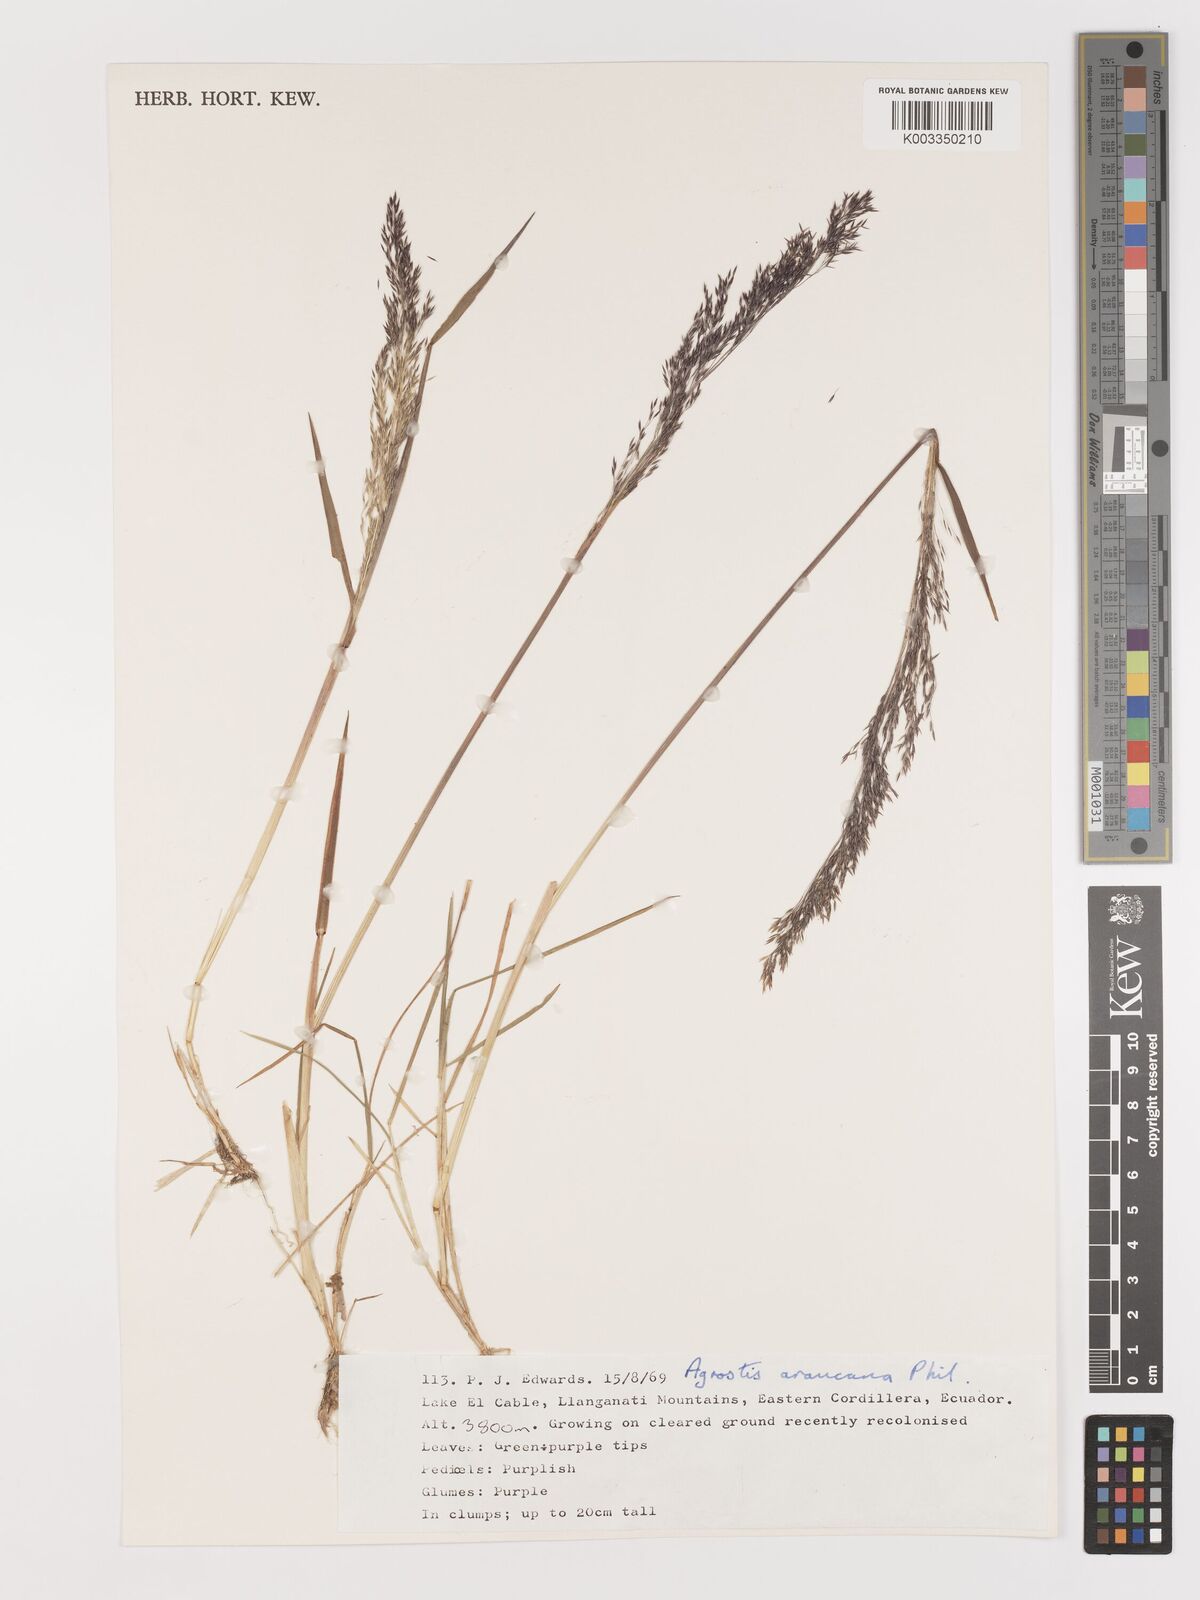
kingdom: Plantae
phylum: Tracheophyta
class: Liliopsida
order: Poales
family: Poaceae
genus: Agrostis
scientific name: Agrostis
